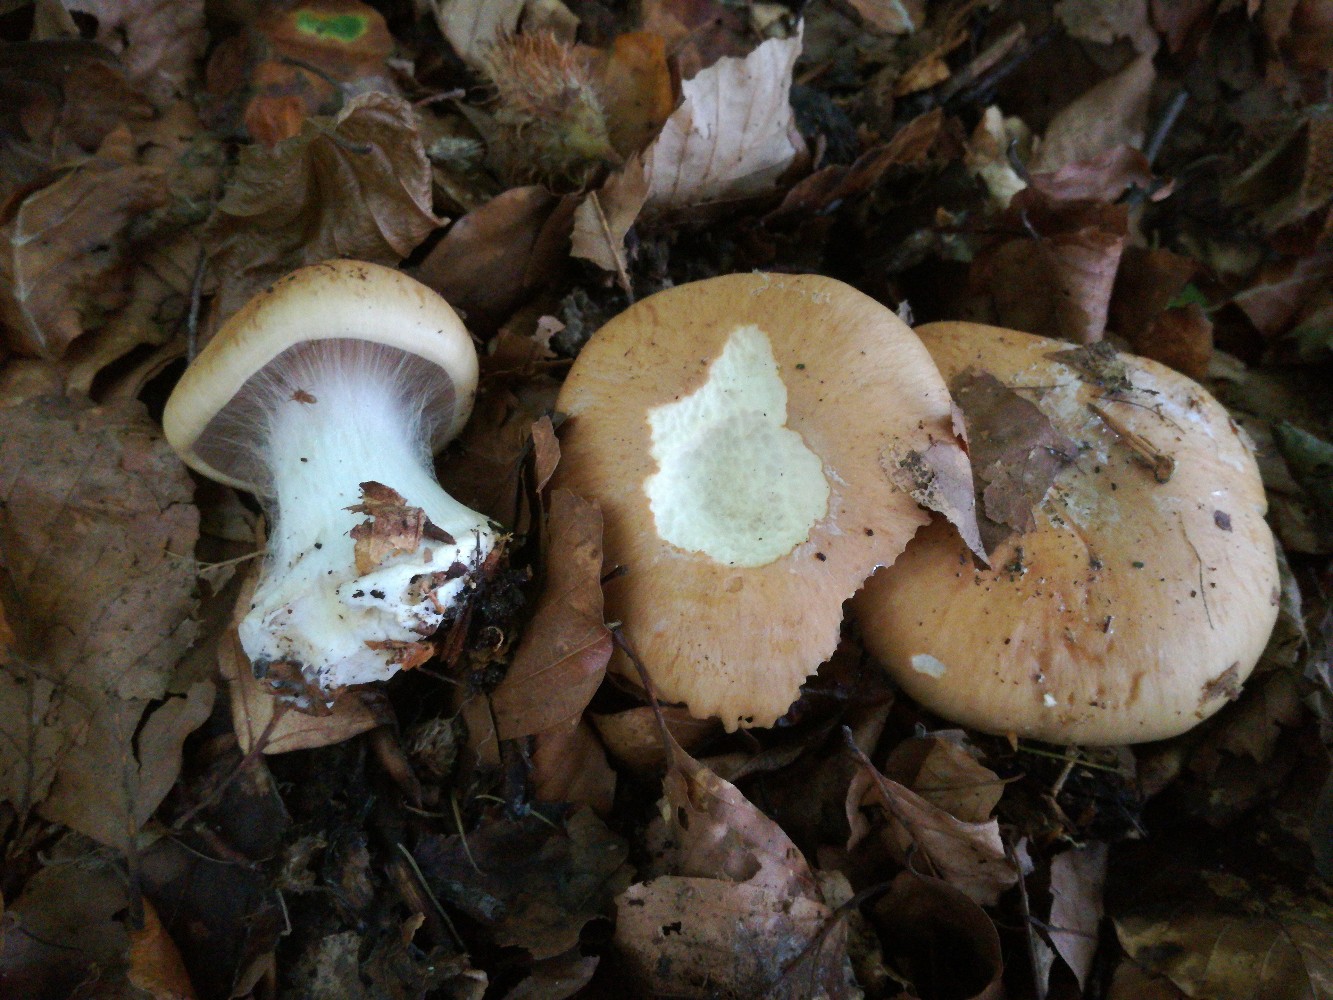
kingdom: Fungi
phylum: Basidiomycota
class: Agaricomycetes
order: Agaricales
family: Cortinariaceae
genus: Phlegmacium
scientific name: Phlegmacium aquilanum
